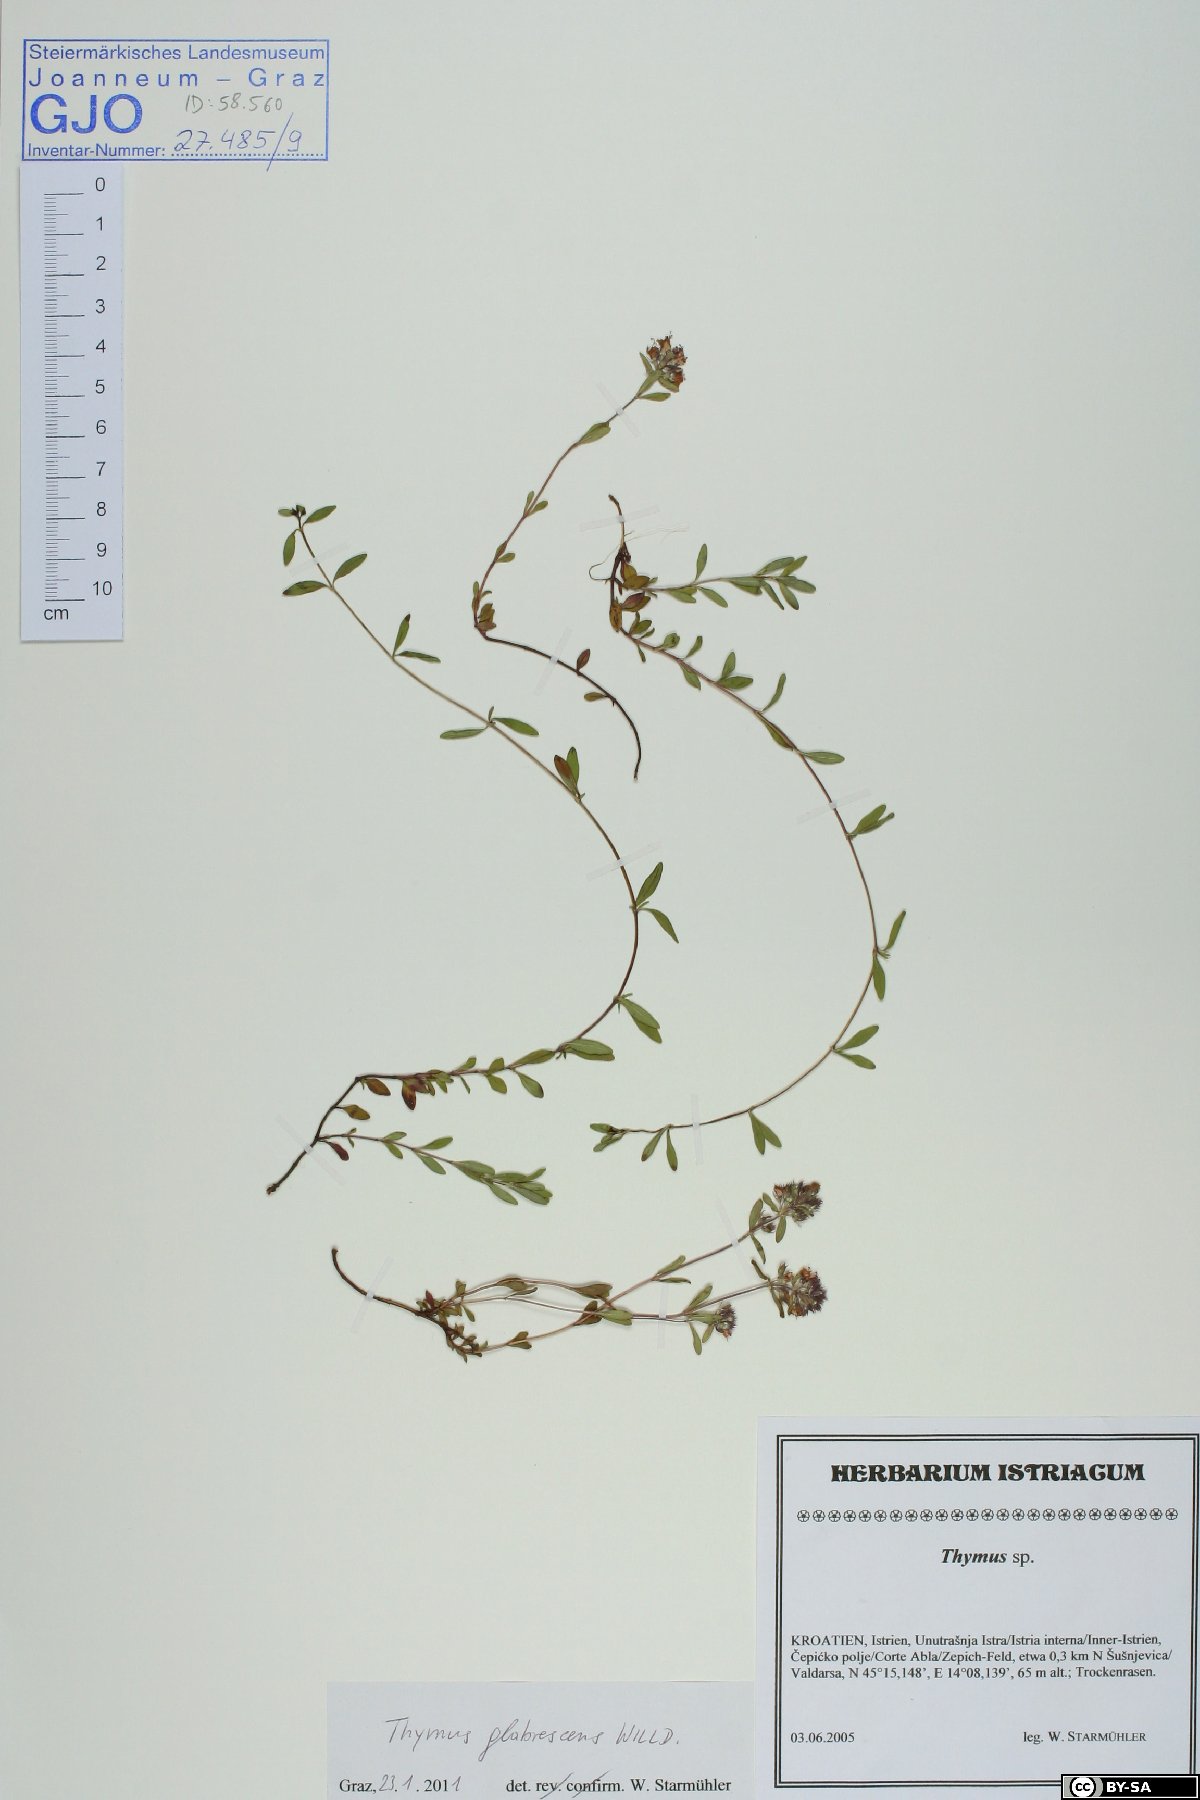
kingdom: Plantae
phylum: Tracheophyta
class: Magnoliopsida
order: Lamiales
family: Lamiaceae
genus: Thymus
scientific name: Thymus odoratissimus
